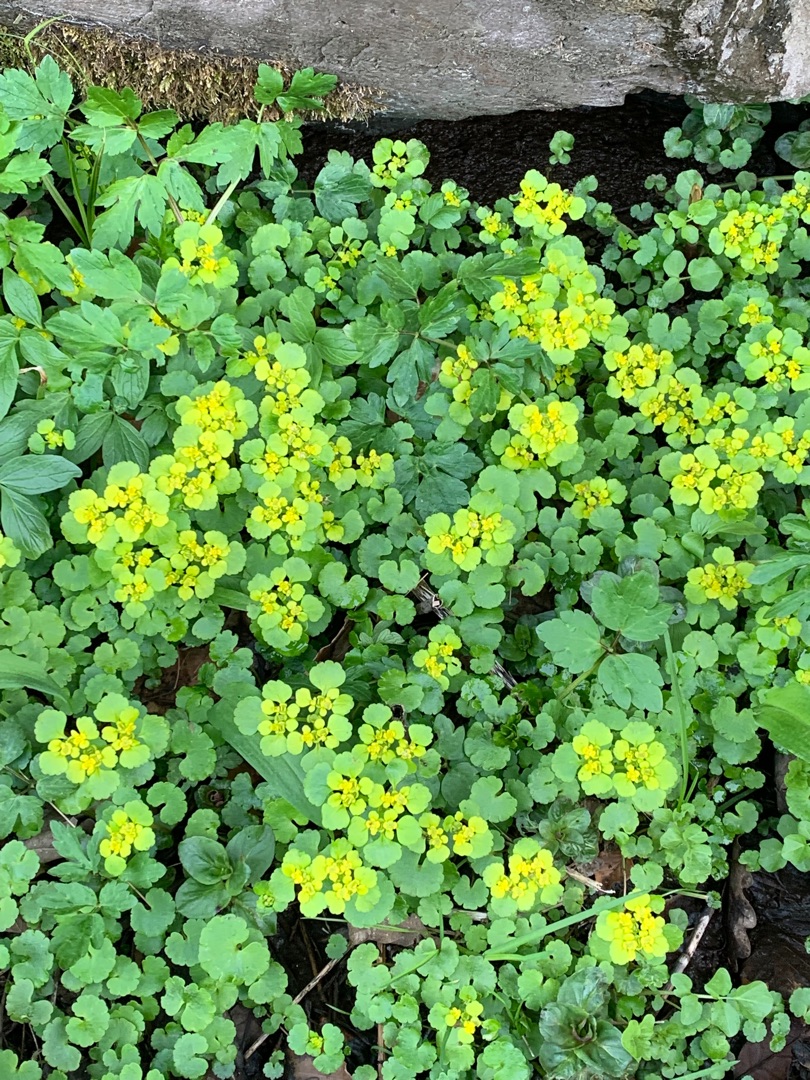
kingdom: Plantae
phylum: Tracheophyta
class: Magnoliopsida
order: Saxifragales
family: Saxifragaceae
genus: Chrysosplenium
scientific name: Chrysosplenium alternifolium
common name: Almindelig milturt
